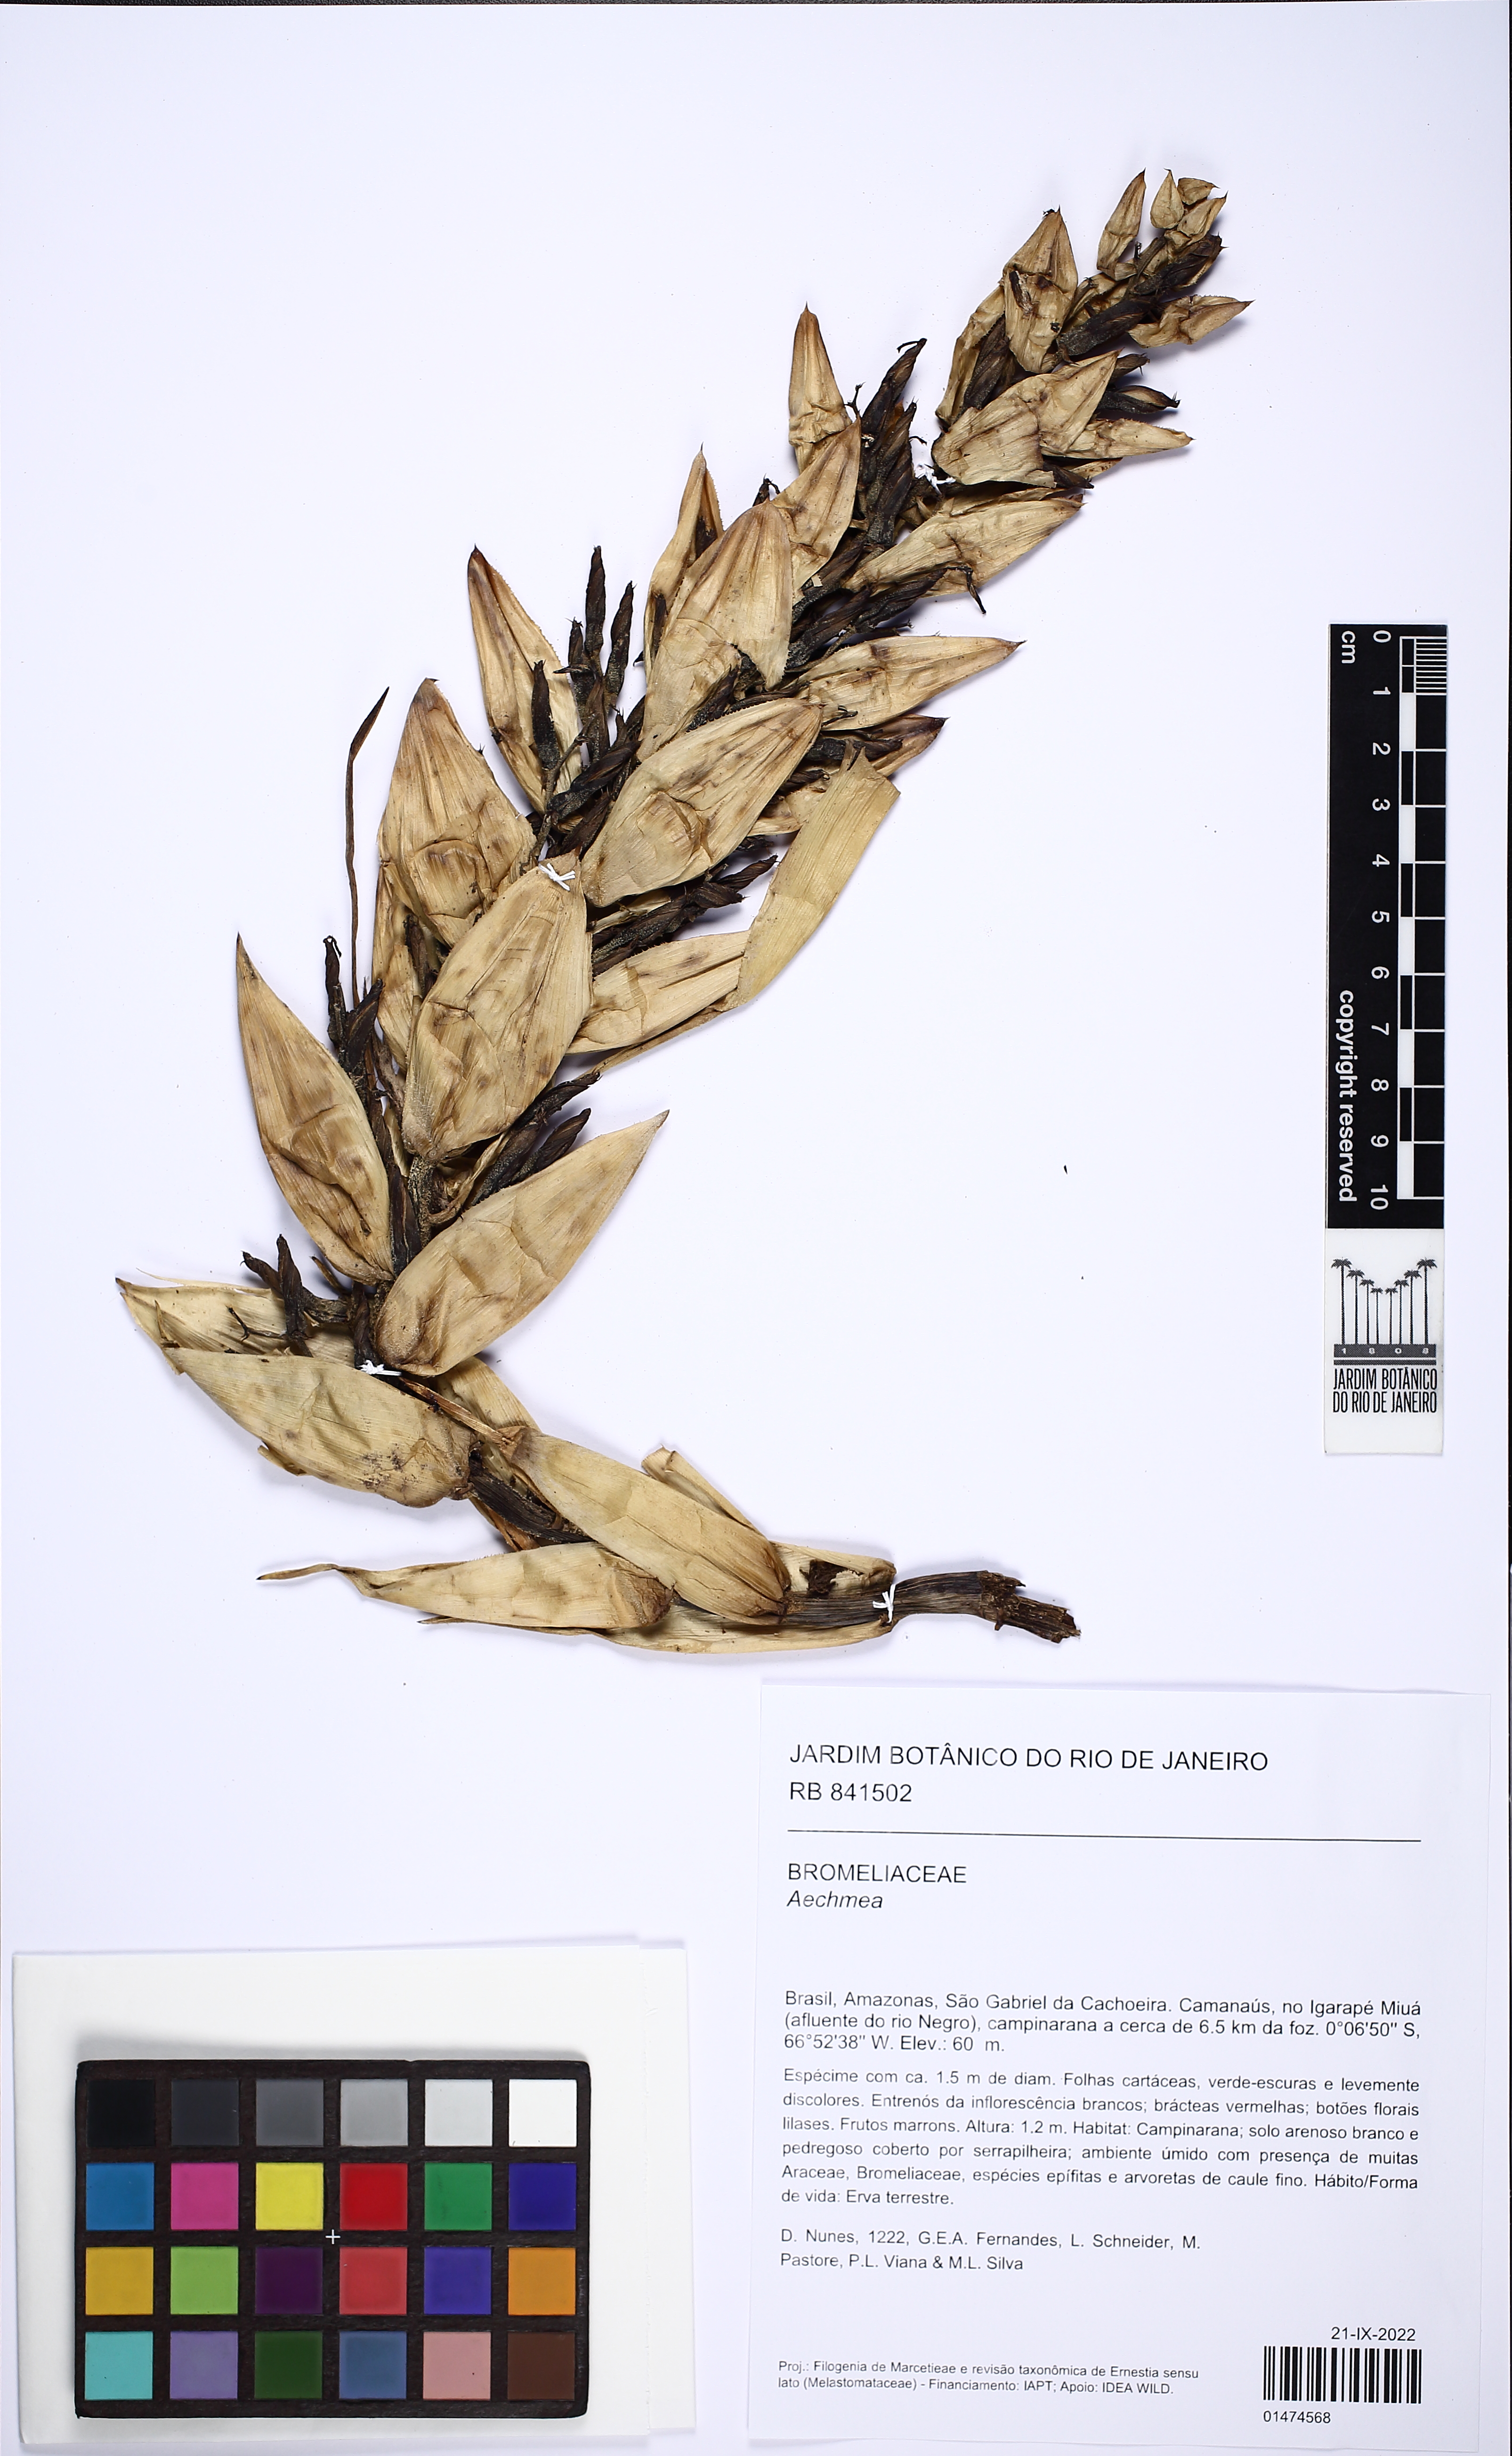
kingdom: Plantae
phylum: Tracheophyta
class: Liliopsida
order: Poales
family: Bromeliaceae
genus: Aechmea
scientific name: Aechmea
